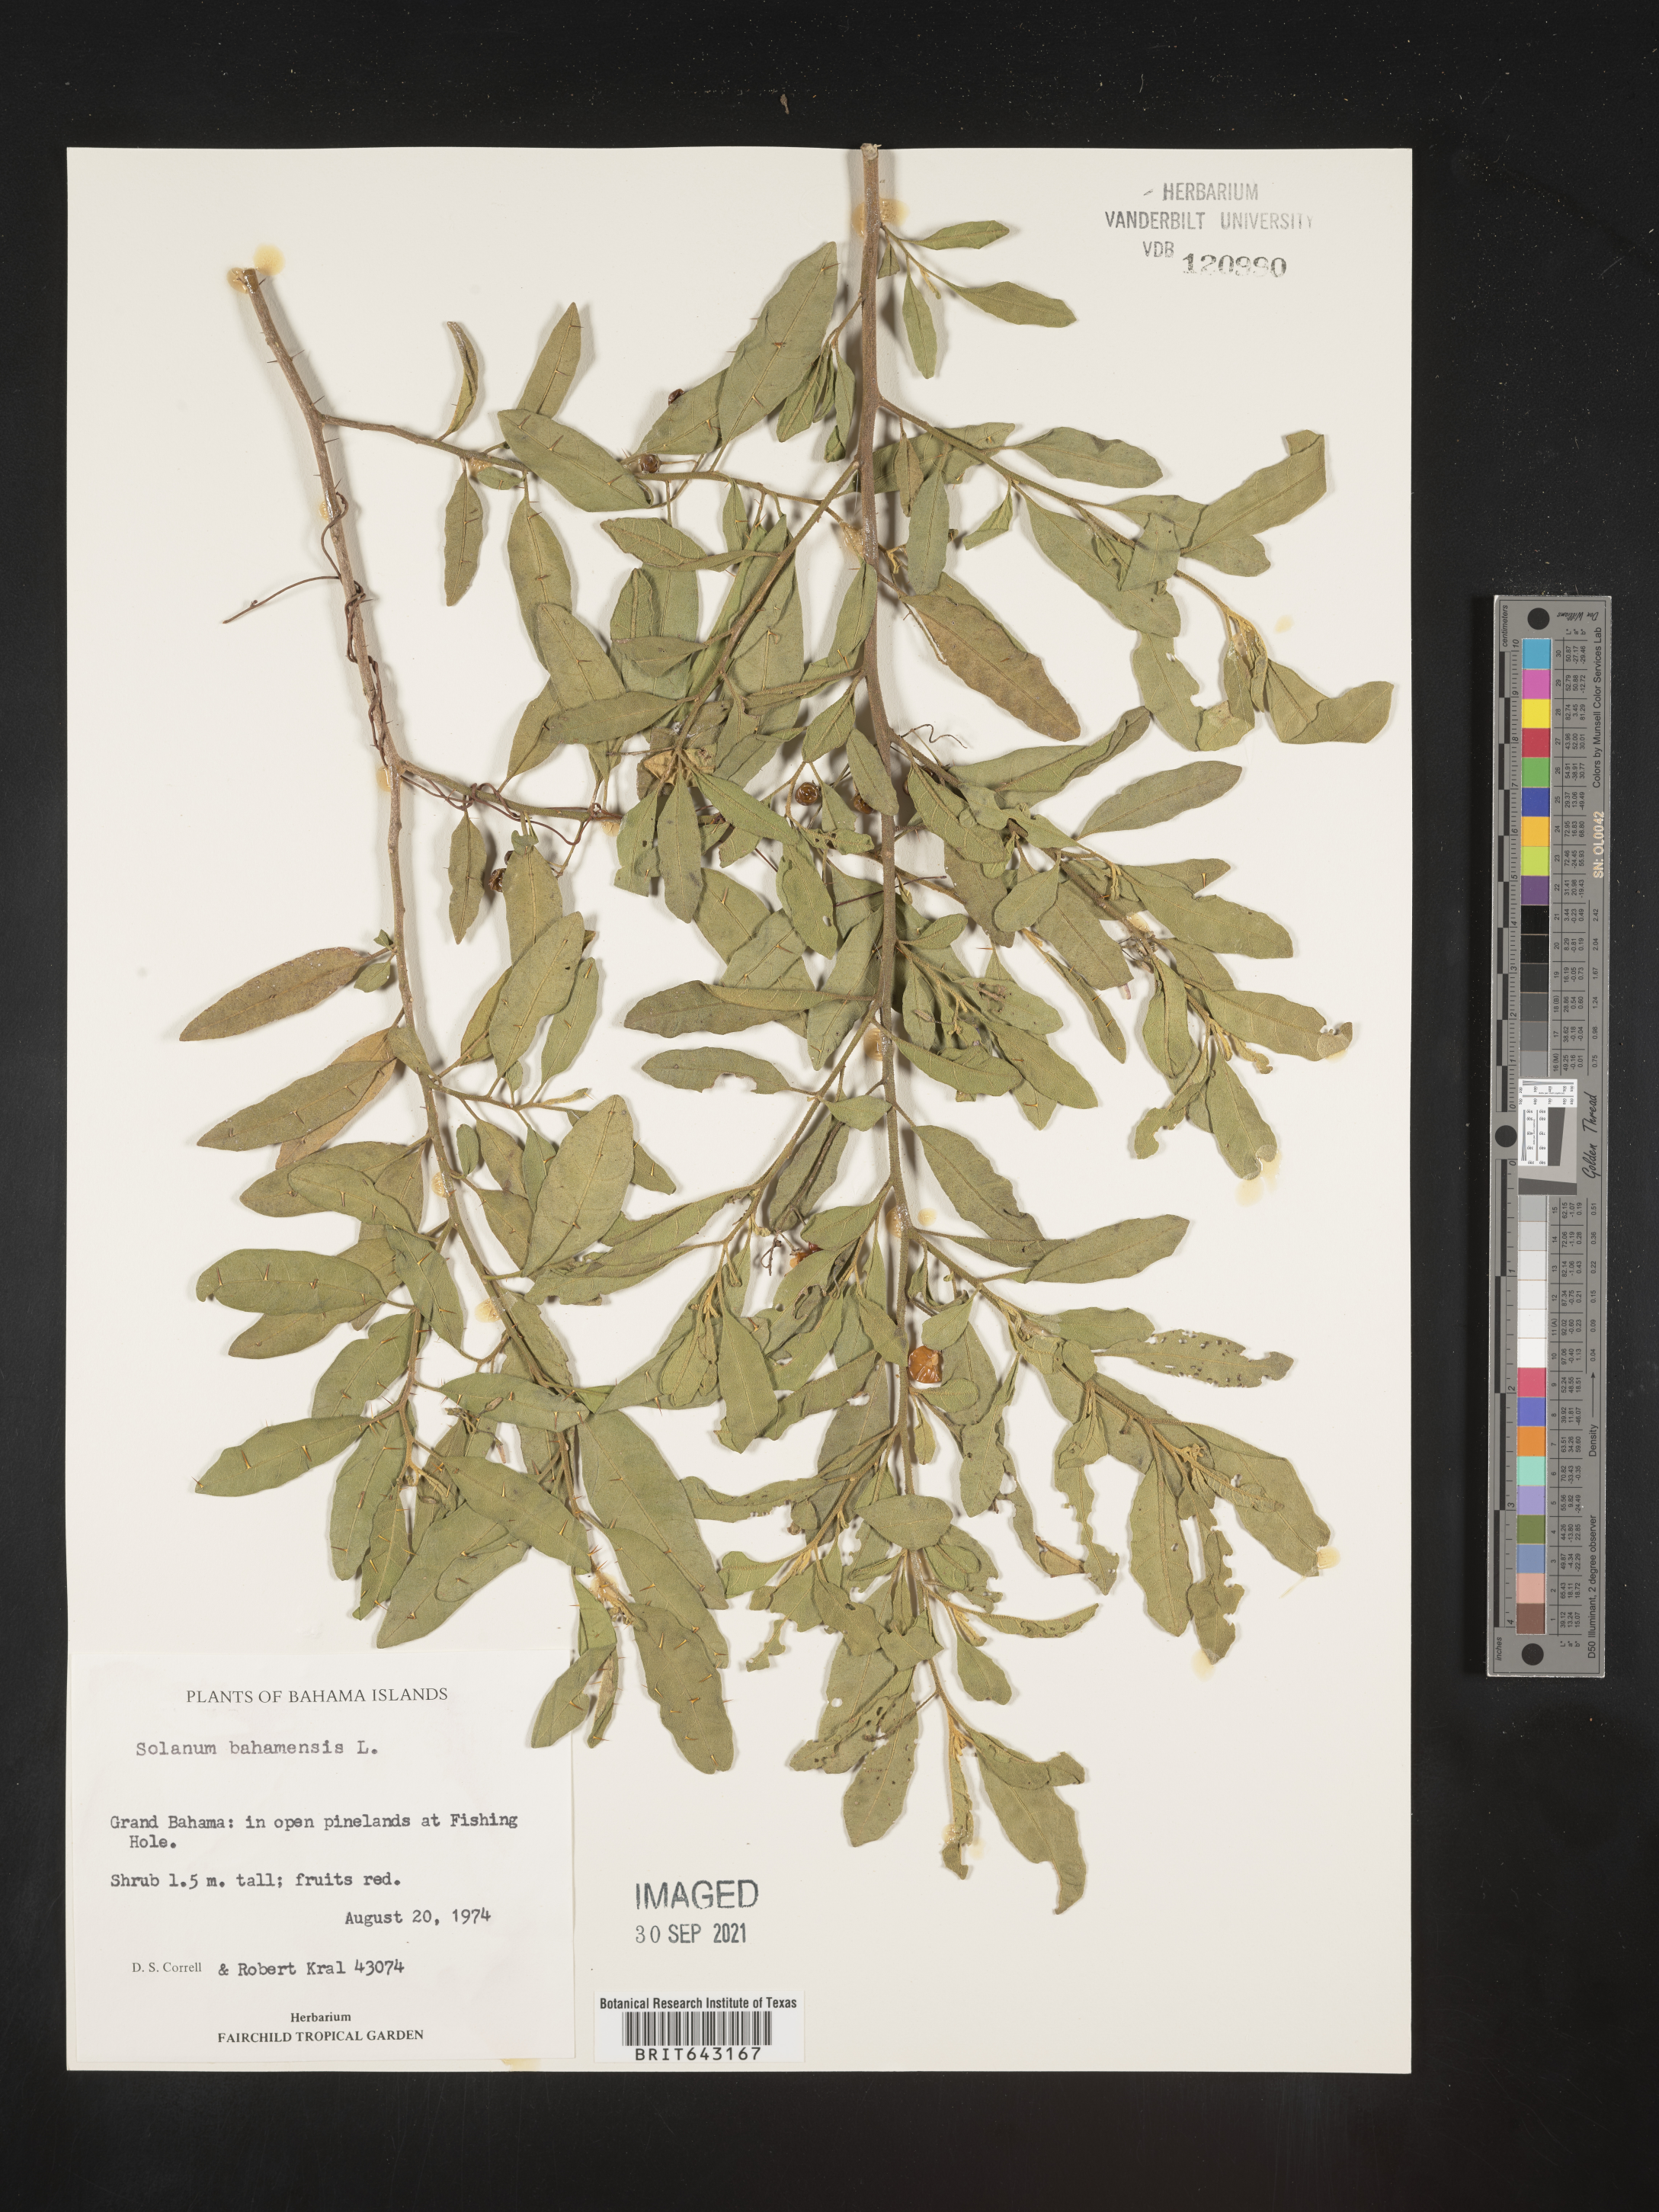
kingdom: Plantae
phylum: Tracheophyta
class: Magnoliopsida
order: Solanales
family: Solanaceae
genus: Solanum
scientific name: Solanum
